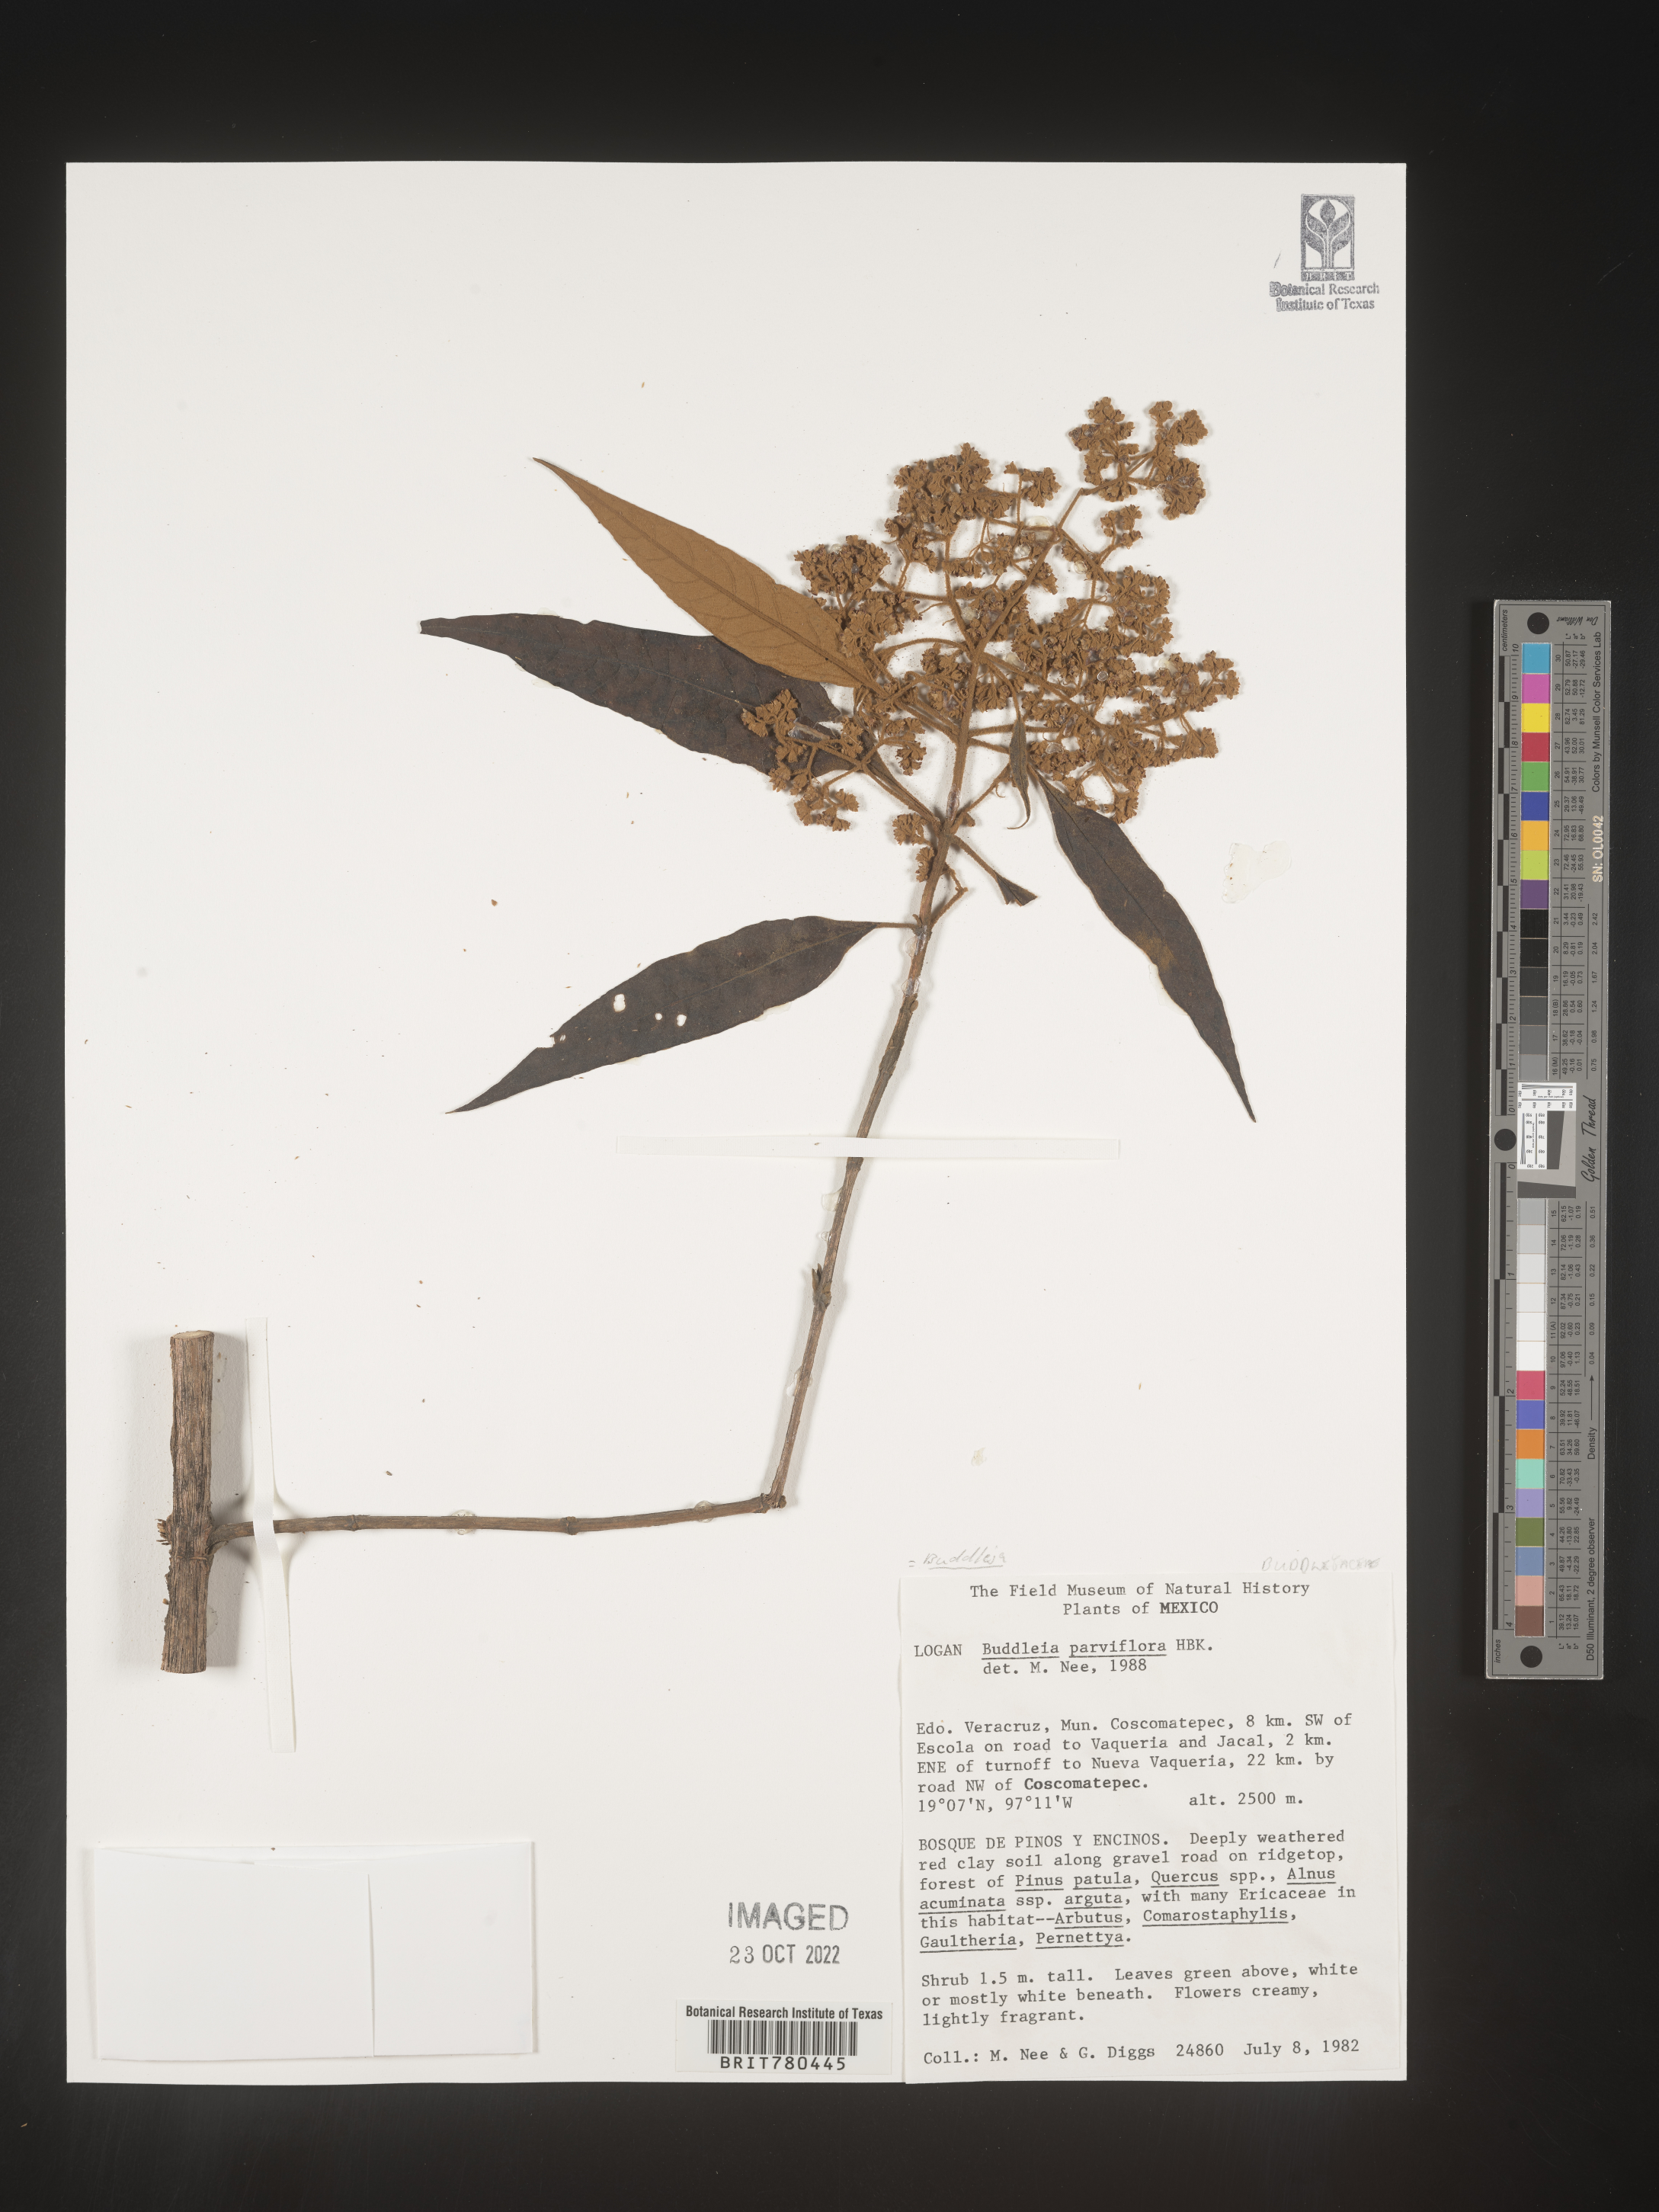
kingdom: Plantae
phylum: Tracheophyta
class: Magnoliopsida
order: Lamiales
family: Scrophulariaceae
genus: Buddleja
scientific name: Buddleja parviflora
